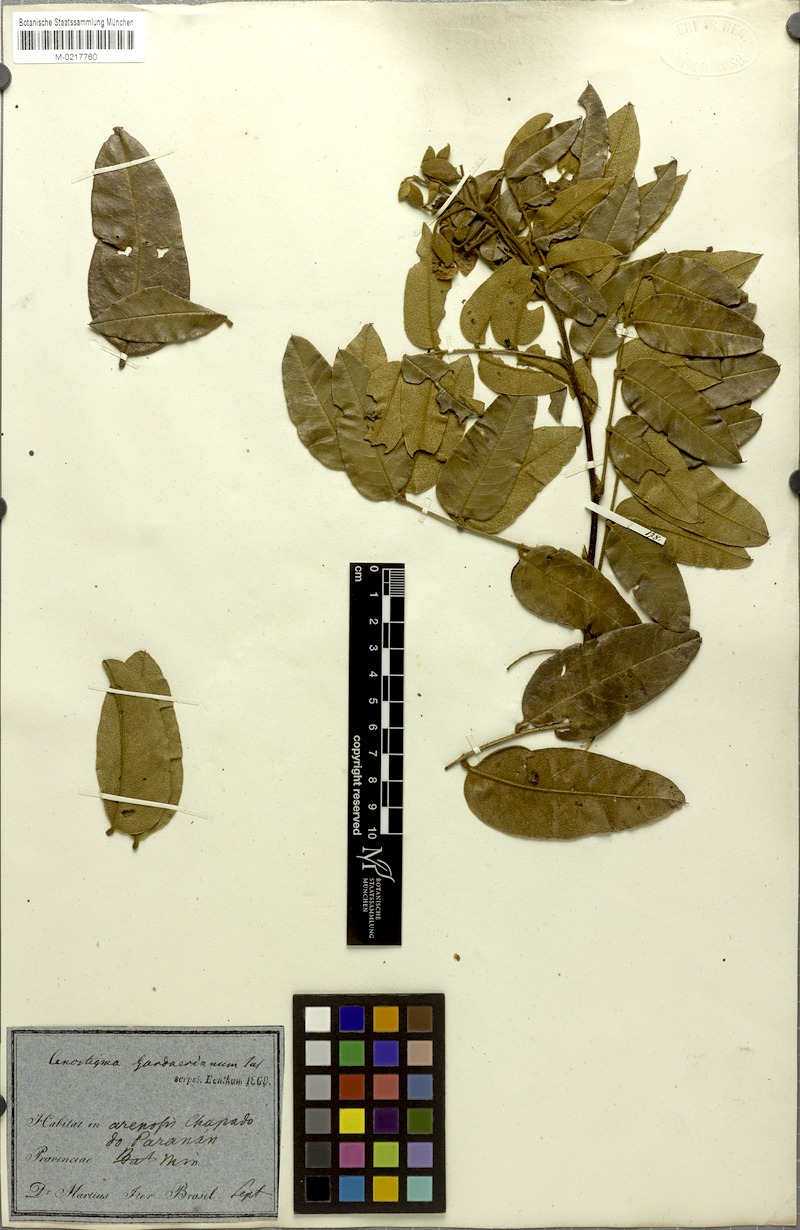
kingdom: Plantae
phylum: Tracheophyta
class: Magnoliopsida
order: Fabales
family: Fabaceae
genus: Cenostigma
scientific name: Cenostigma macrophyllum
